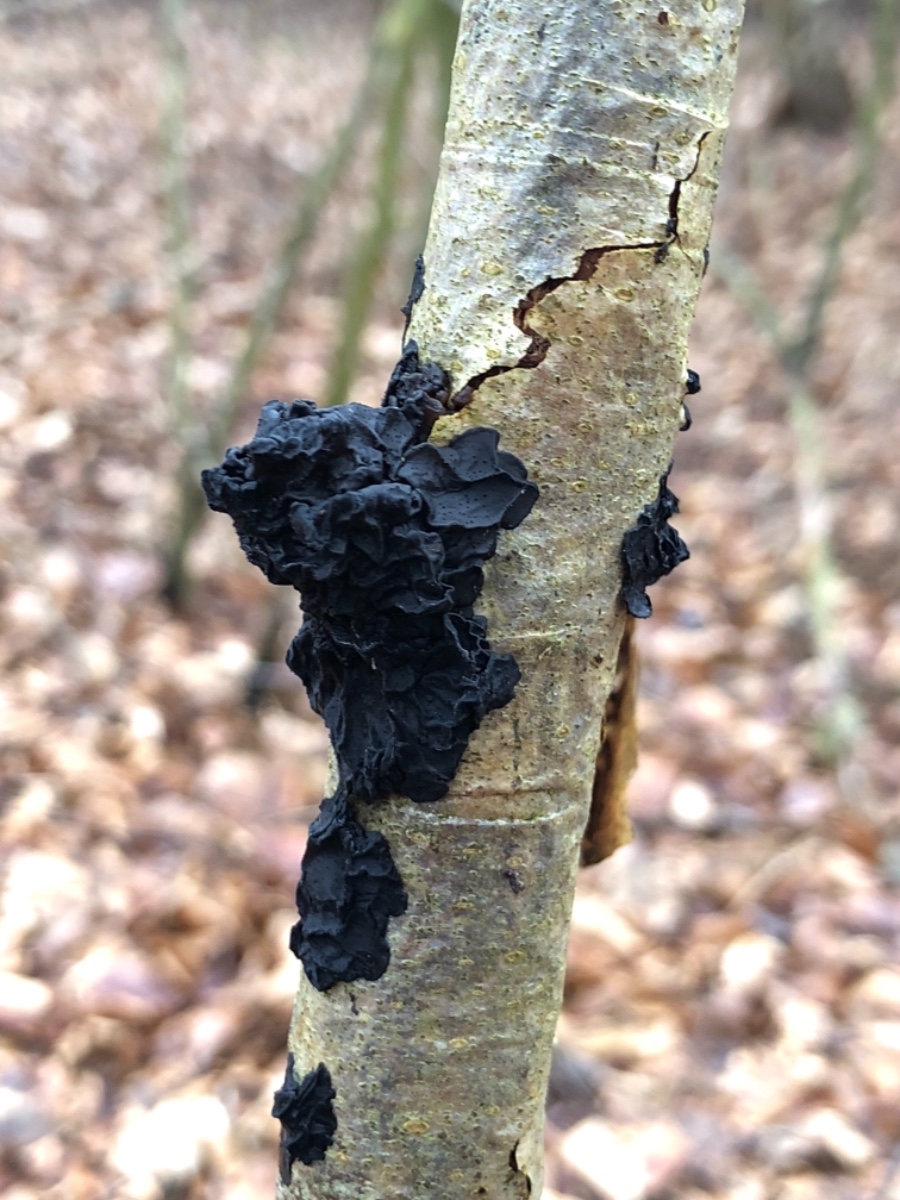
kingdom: Fungi
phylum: Basidiomycota
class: Agaricomycetes
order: Auriculariales
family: Auriculariaceae
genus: Exidia
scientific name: Exidia nigricans
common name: almindelig bævretop
